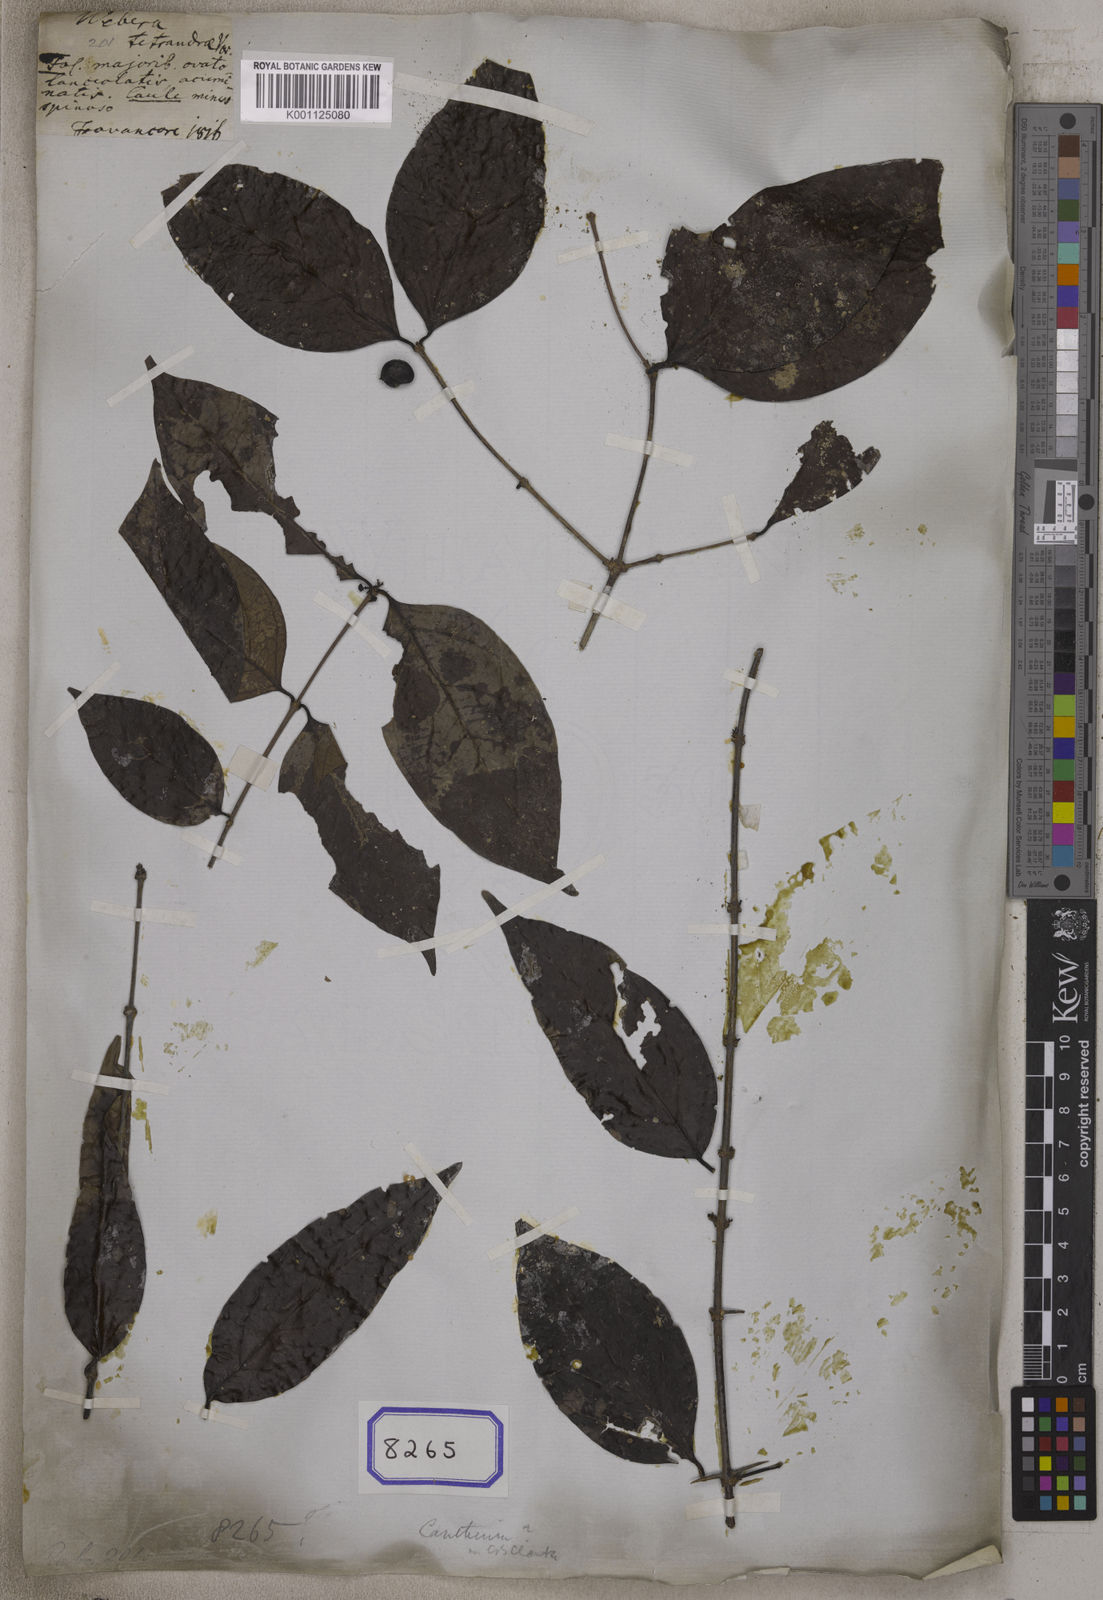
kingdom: Plantae
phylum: Tracheophyta
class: Magnoliopsida
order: Gentianales
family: Rubiaceae
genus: Webera
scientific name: Webera
